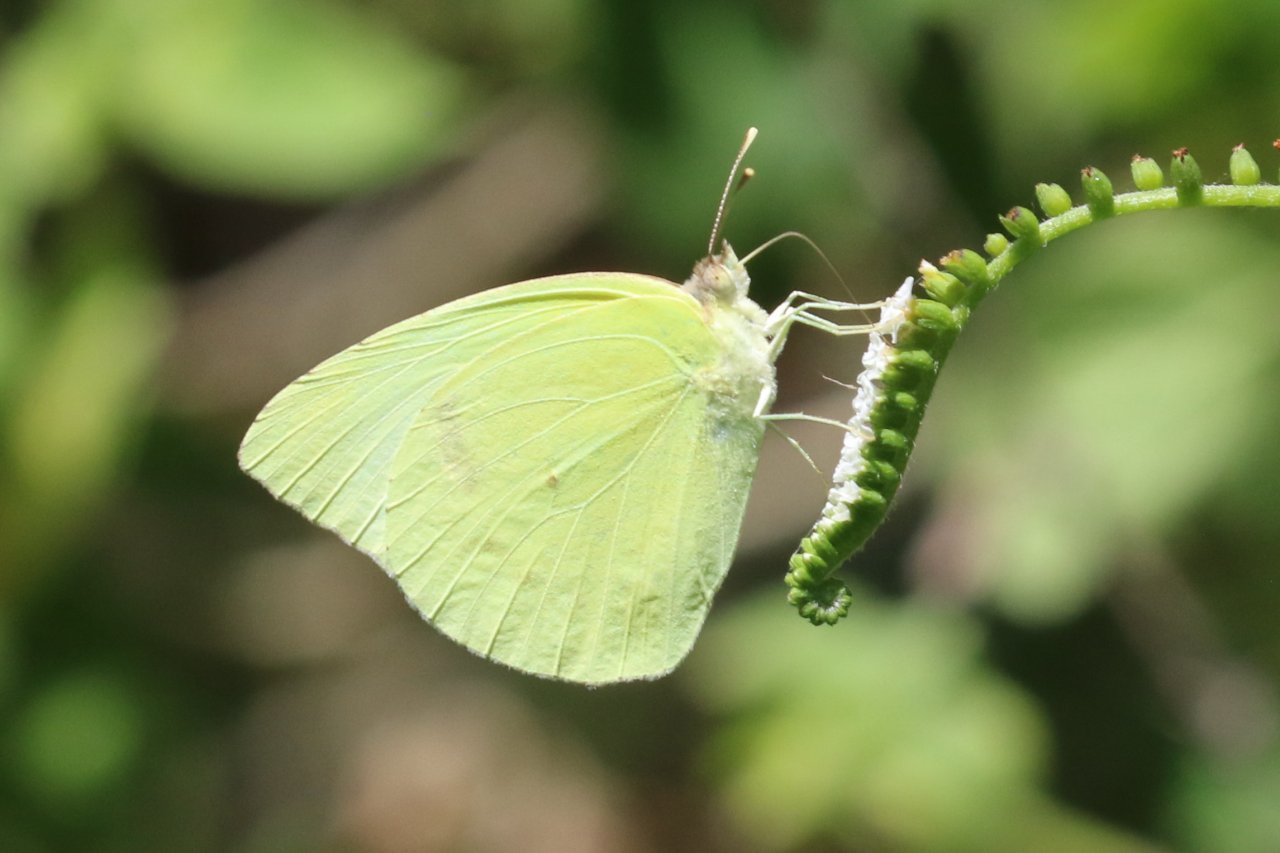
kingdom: Animalia
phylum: Arthropoda
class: Insecta
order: Lepidoptera
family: Pieridae
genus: Kricogonia
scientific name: Kricogonia lyside
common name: Lyside Sulphur
